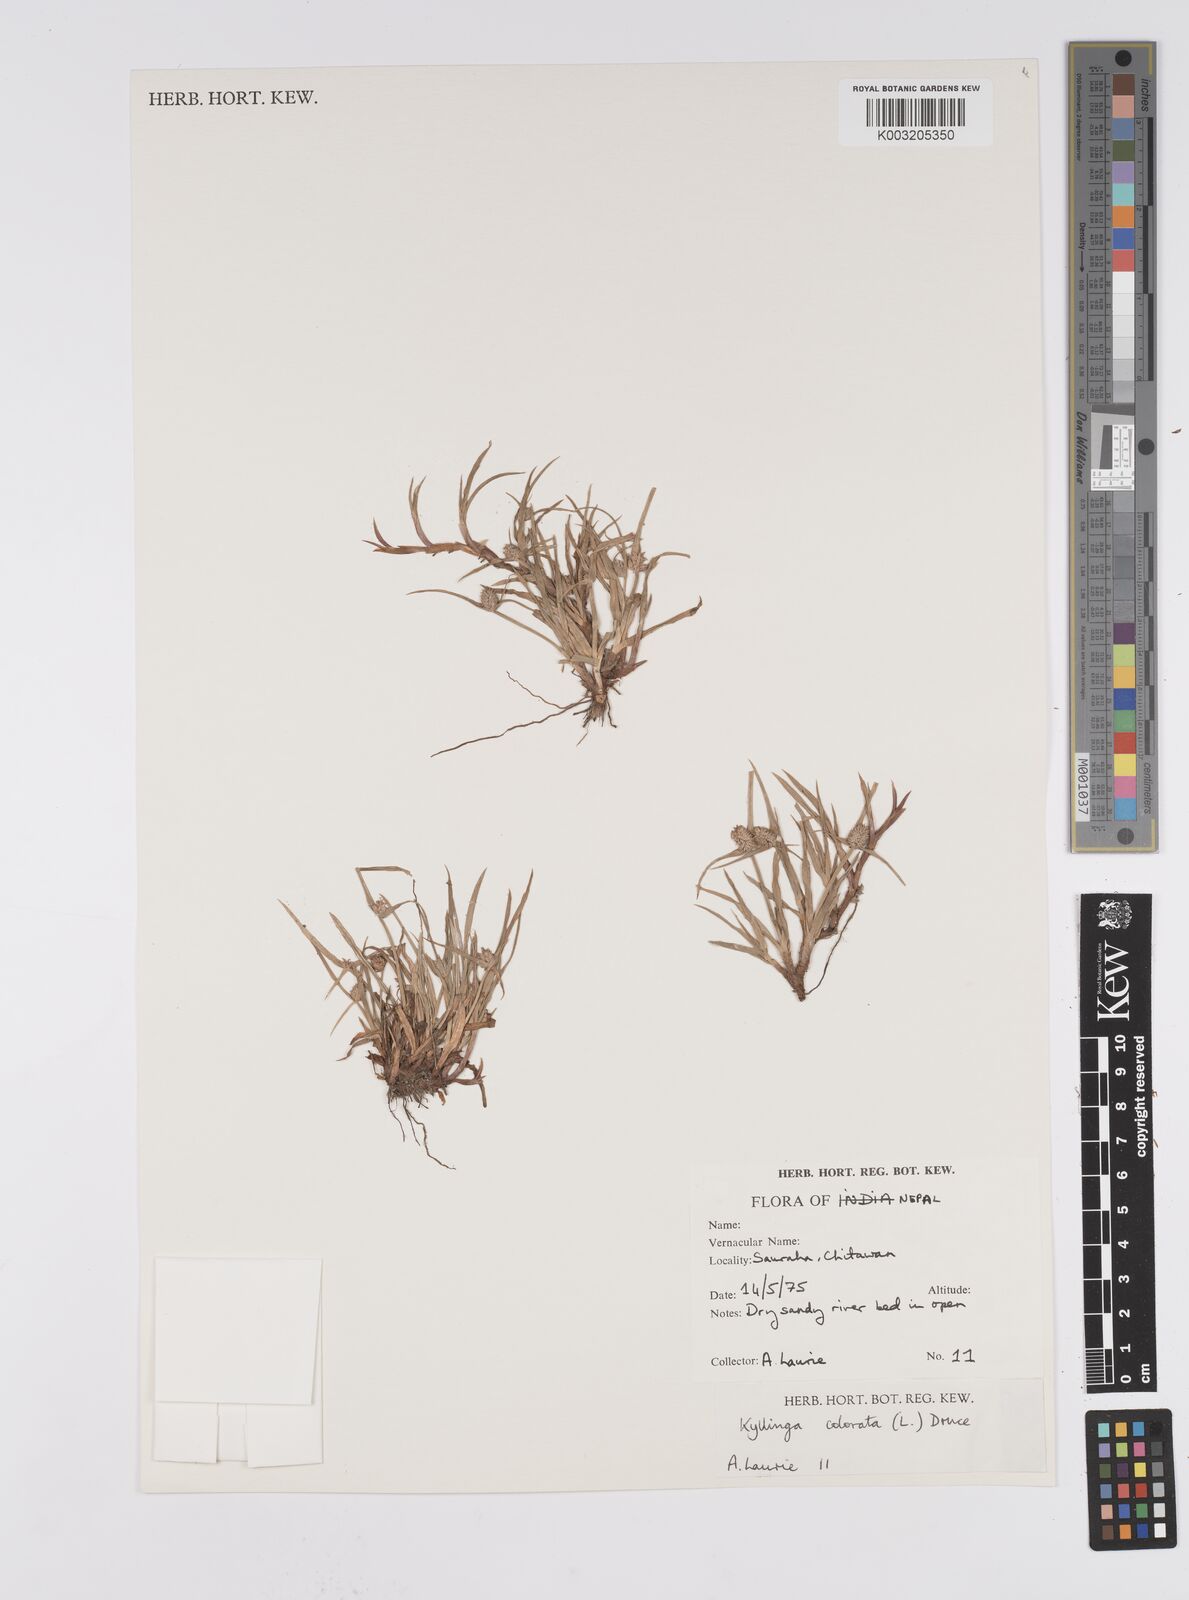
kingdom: Plantae
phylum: Tracheophyta
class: Liliopsida
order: Poales
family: Cyperaceae
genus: Cyperus
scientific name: Cyperus brevifolius
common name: Globe kyllinga
